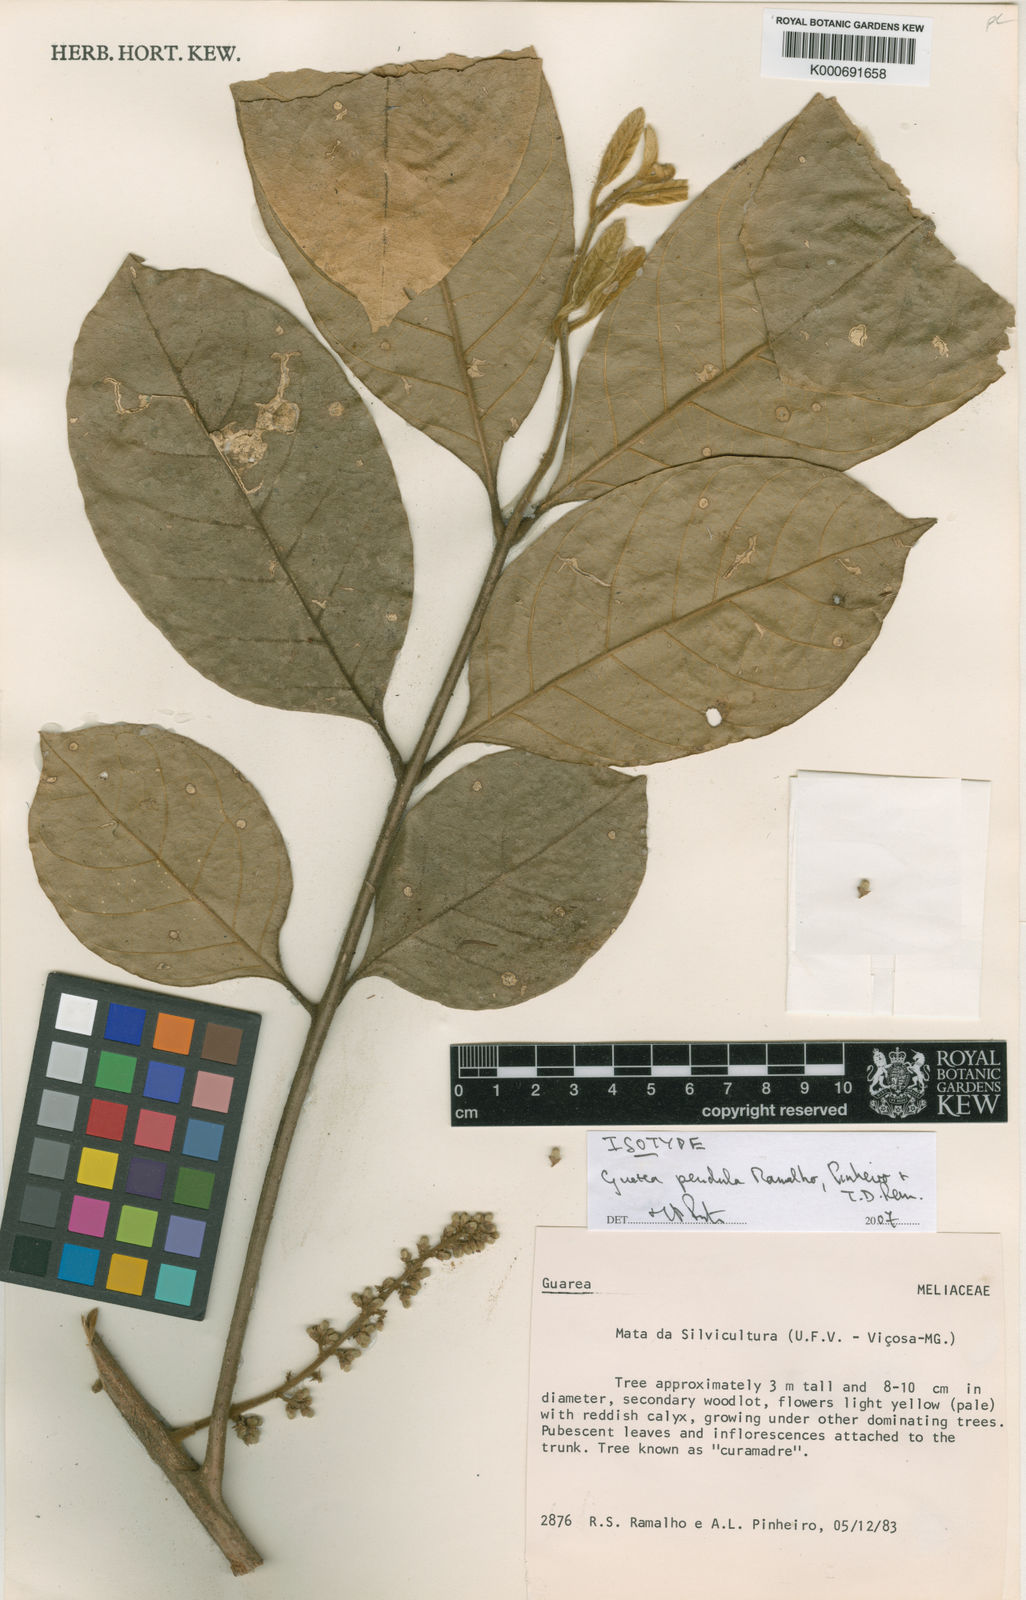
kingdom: Plantae
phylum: Tracheophyta
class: Magnoliopsida
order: Sapindales
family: Meliaceae
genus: Guarea
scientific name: Guarea
